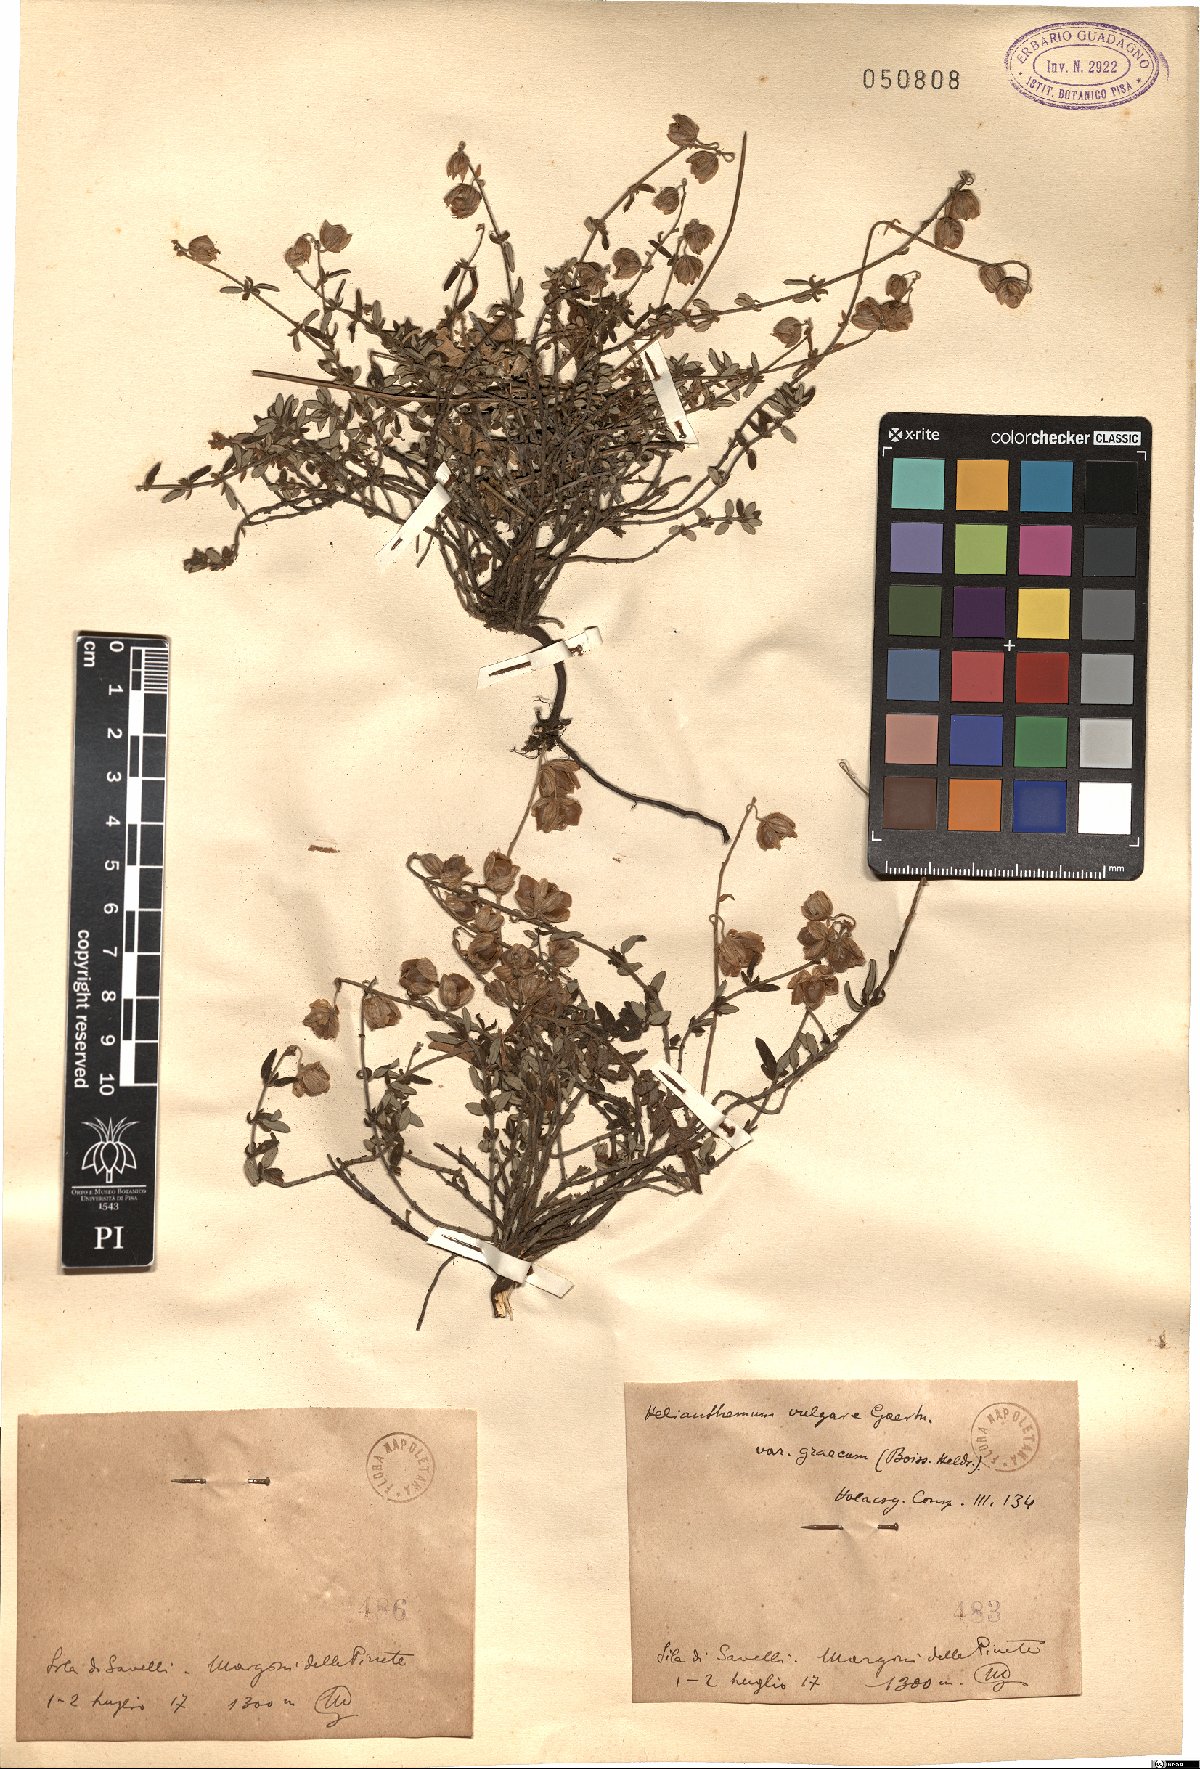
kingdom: Plantae
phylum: Tracheophyta
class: Magnoliopsida
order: Malvales
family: Cistaceae
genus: Helianthemum
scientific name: Helianthemum vulgare
